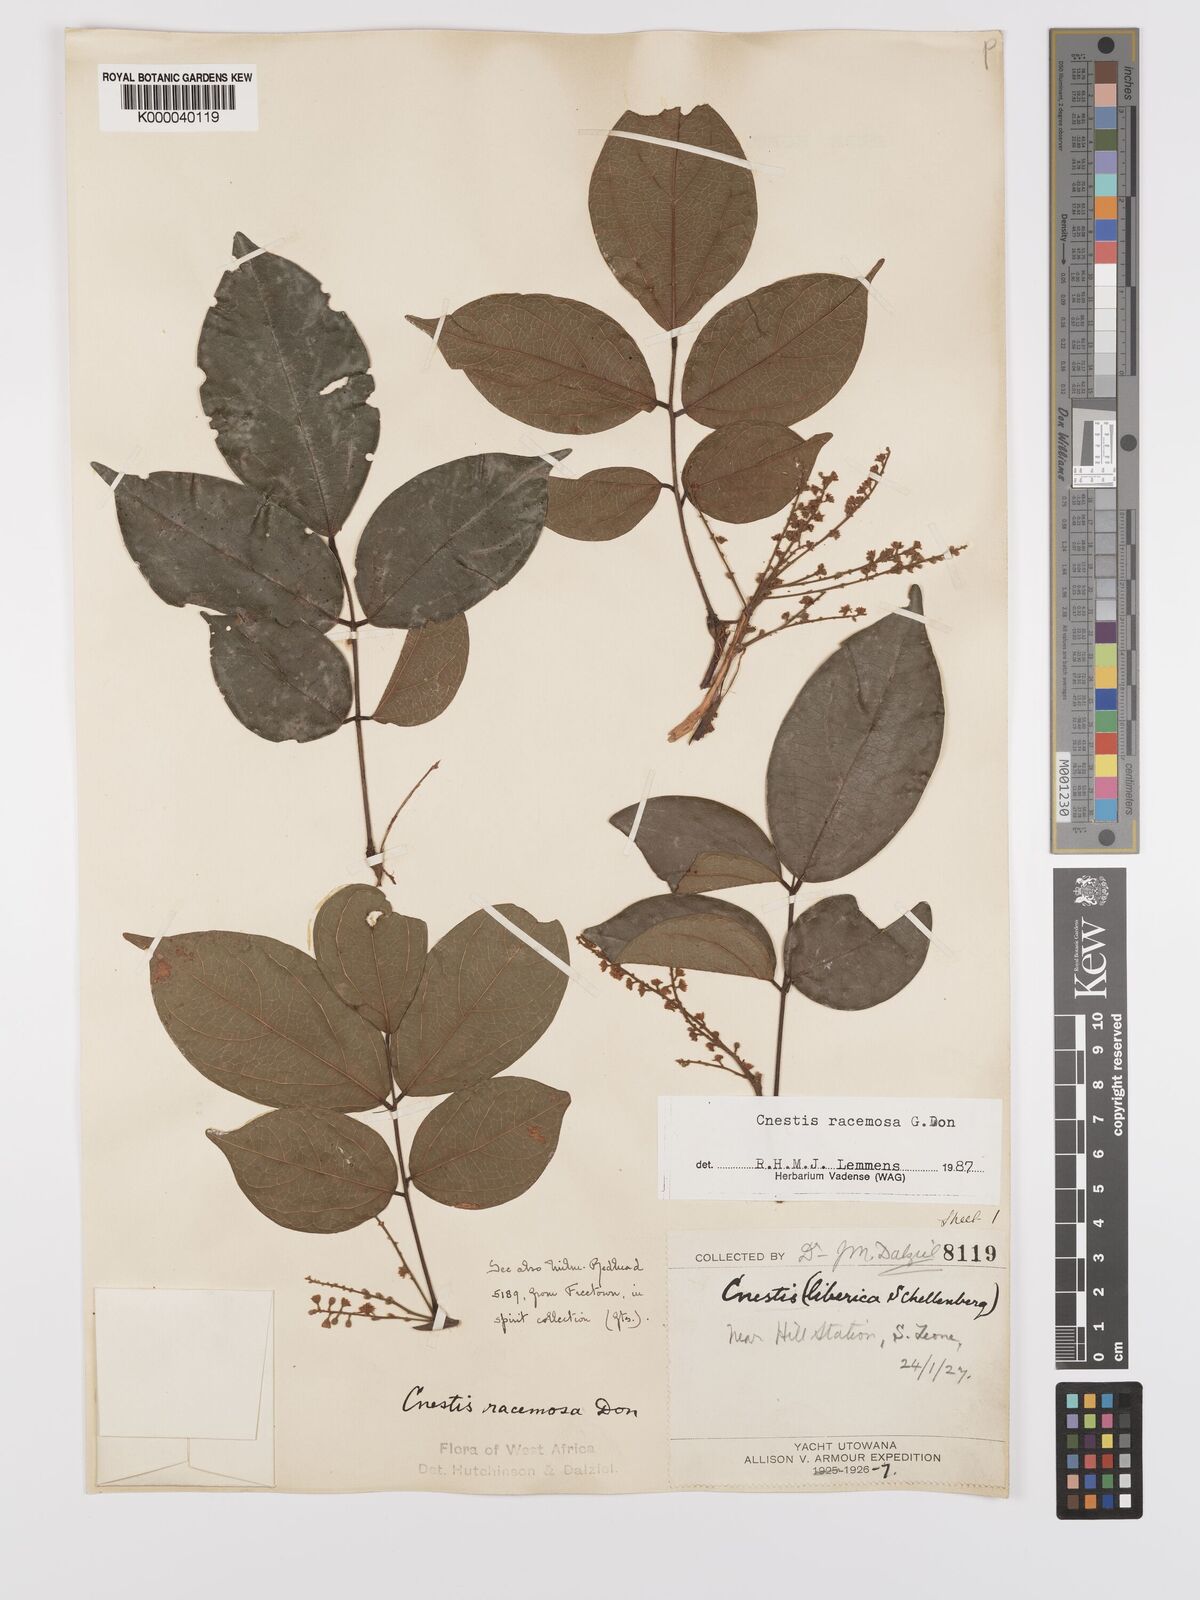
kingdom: Plantae
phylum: Tracheophyta
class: Magnoliopsida
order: Oxalidales
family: Connaraceae
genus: Cnestis
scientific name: Cnestis racemosa
